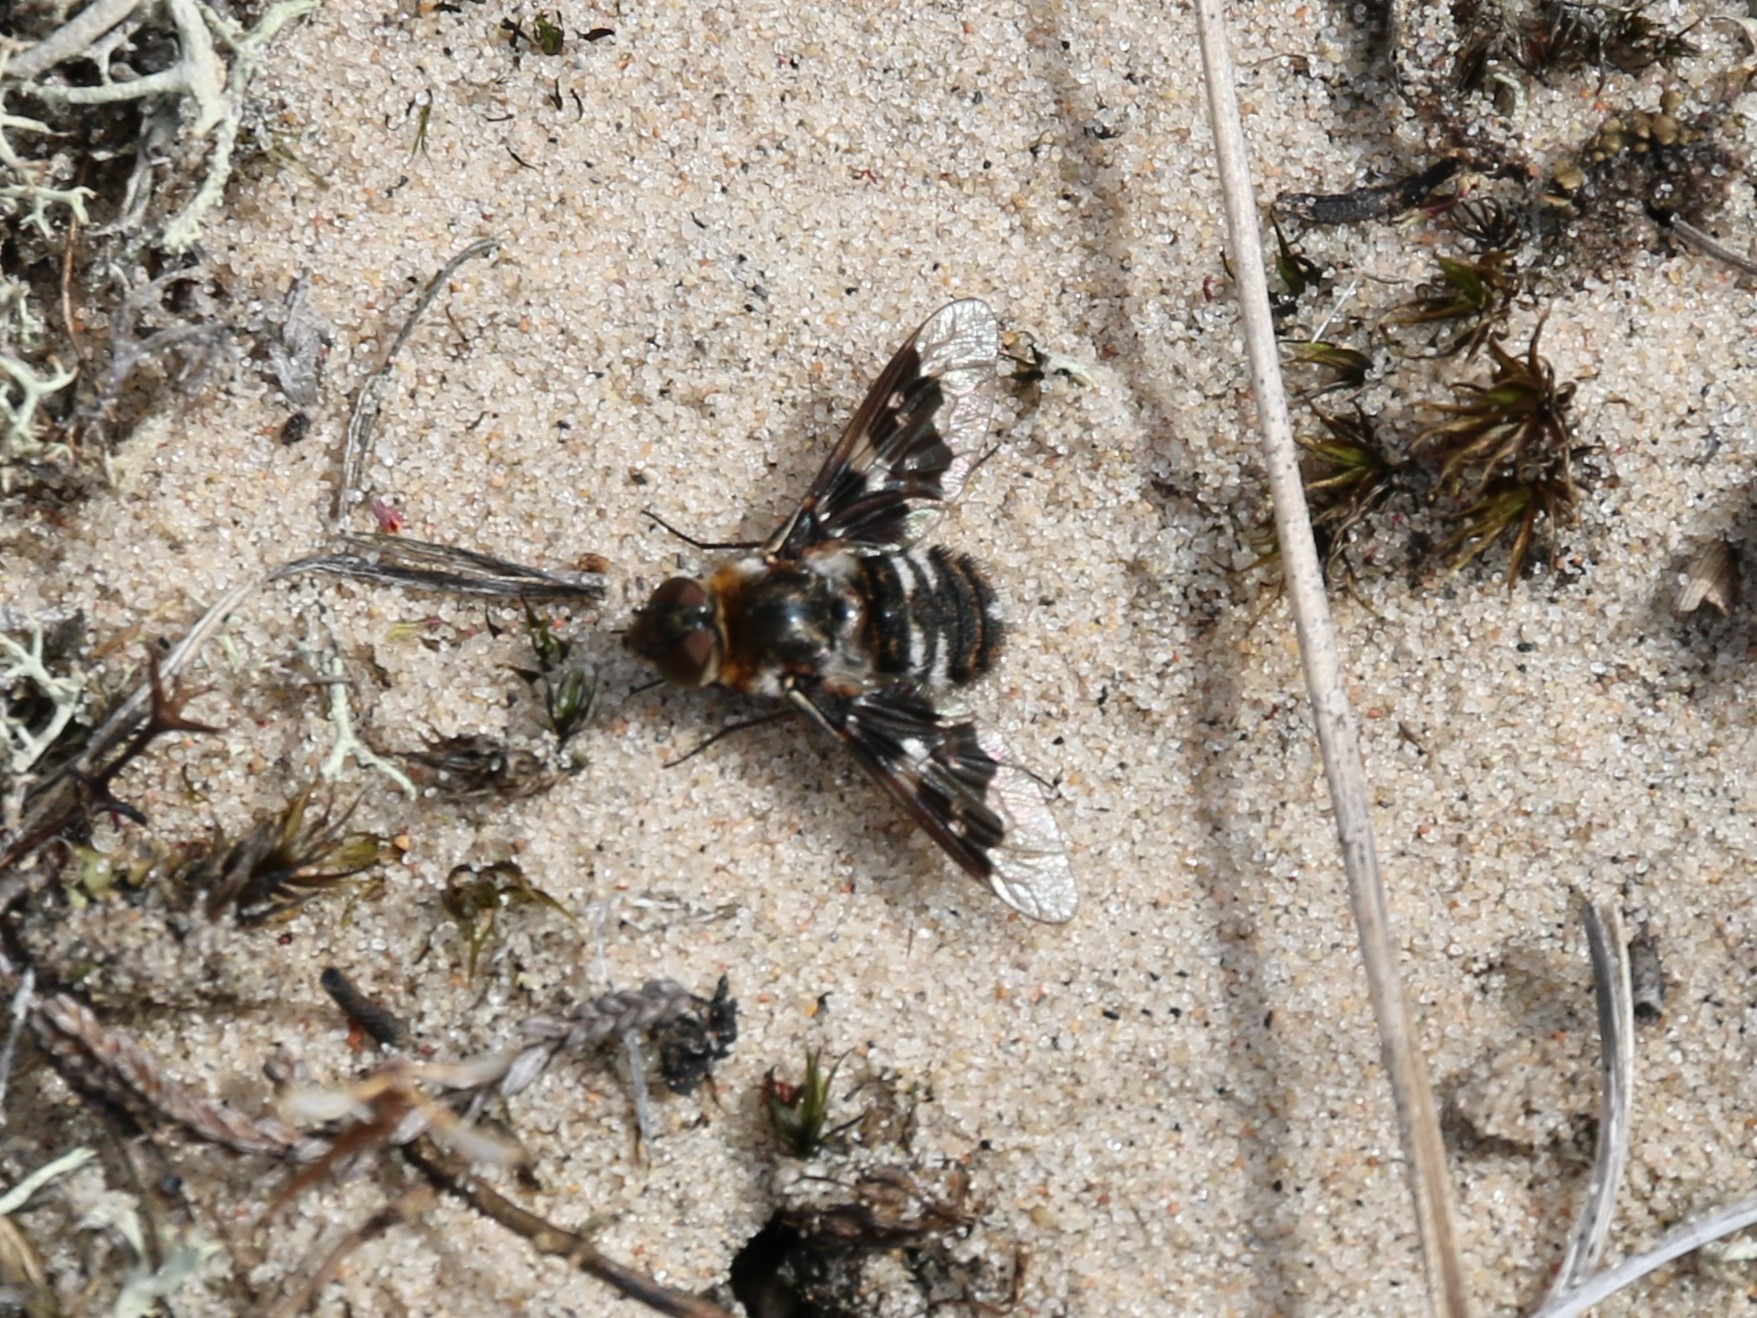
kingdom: Animalia
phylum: Arthropoda
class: Insecta
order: Diptera
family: Bombyliidae
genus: Thyridanthrax
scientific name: Thyridanthrax fenestratus
